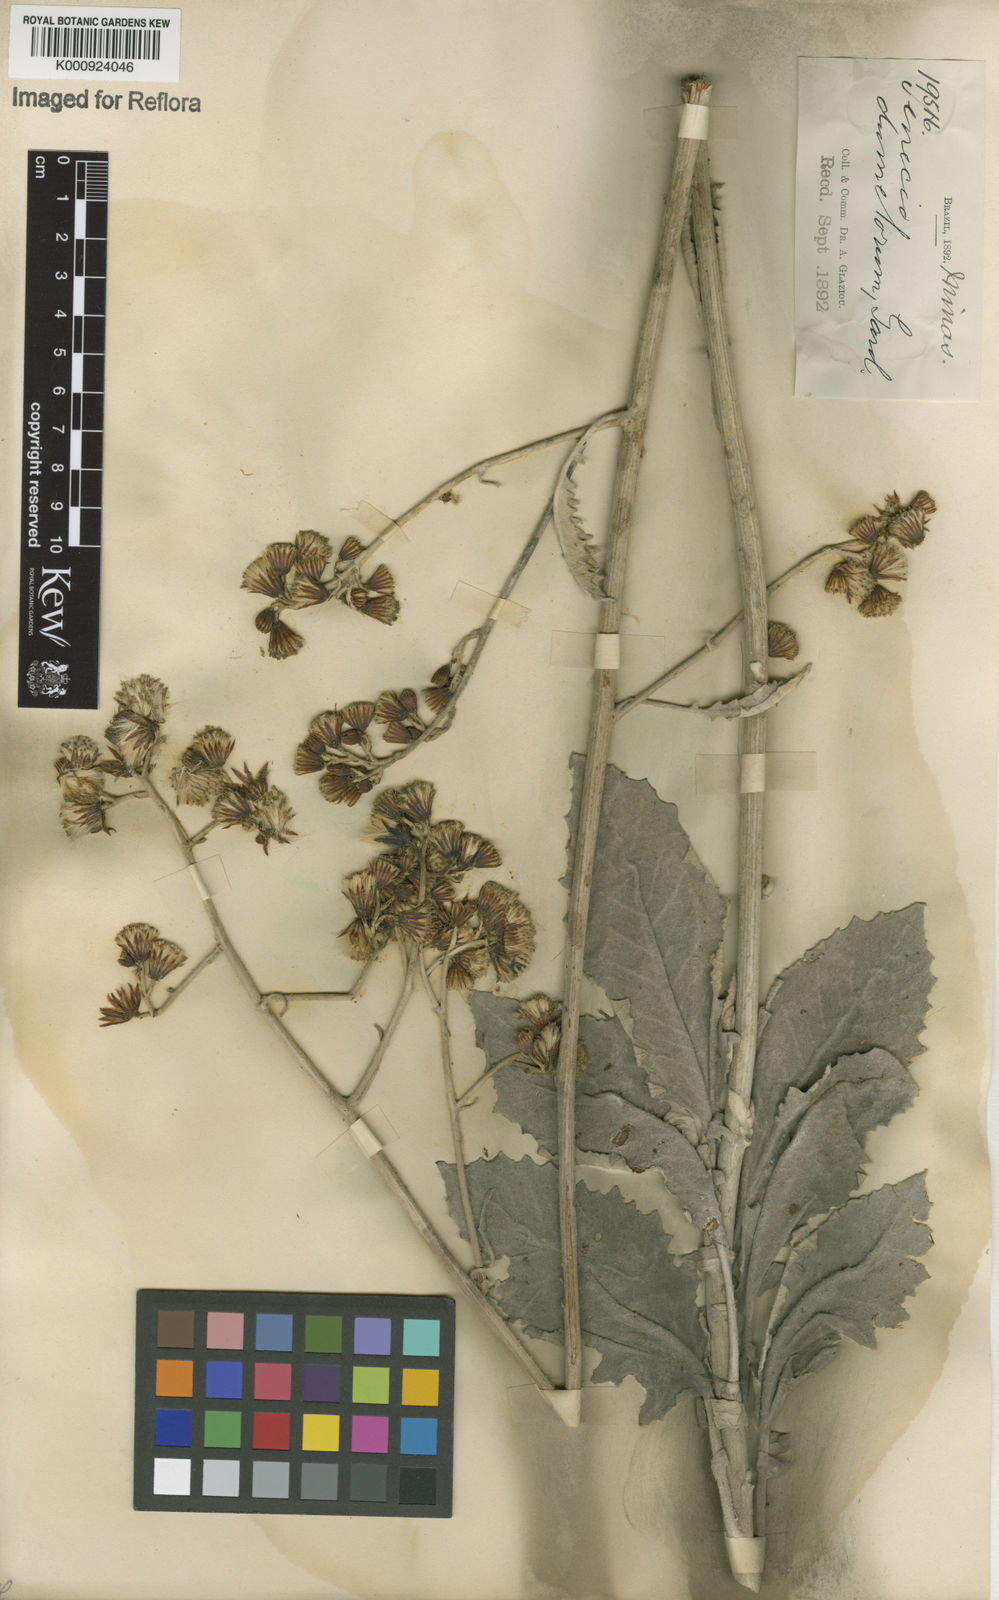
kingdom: Plantae
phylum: Tracheophyta
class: Magnoliopsida
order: Asterales
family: Asteraceae
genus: Senecio
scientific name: Senecio dumetorum
